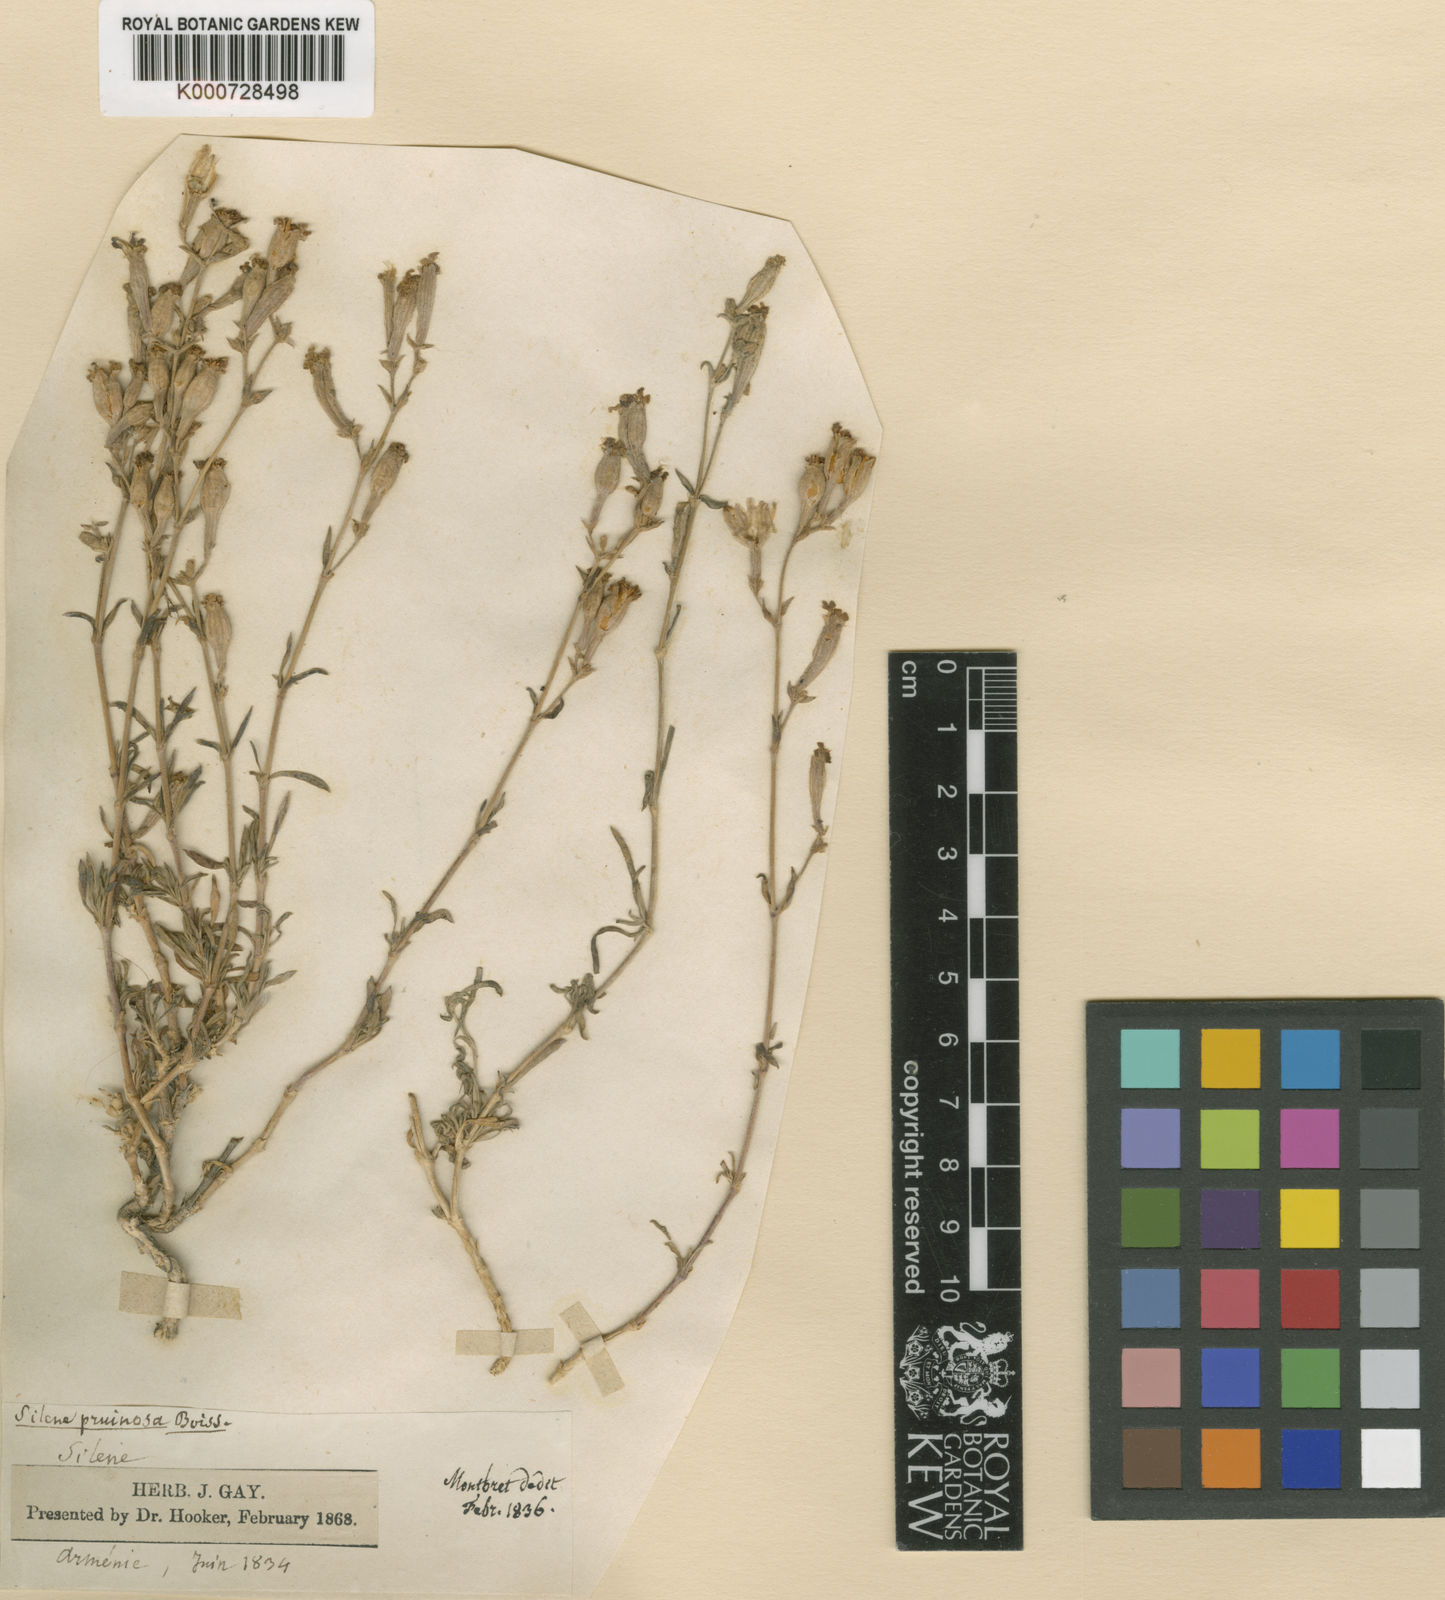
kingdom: Plantae
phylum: Tracheophyta
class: Magnoliopsida
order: Caryophyllales
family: Caryophyllaceae
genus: Silene
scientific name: Silene argentea
